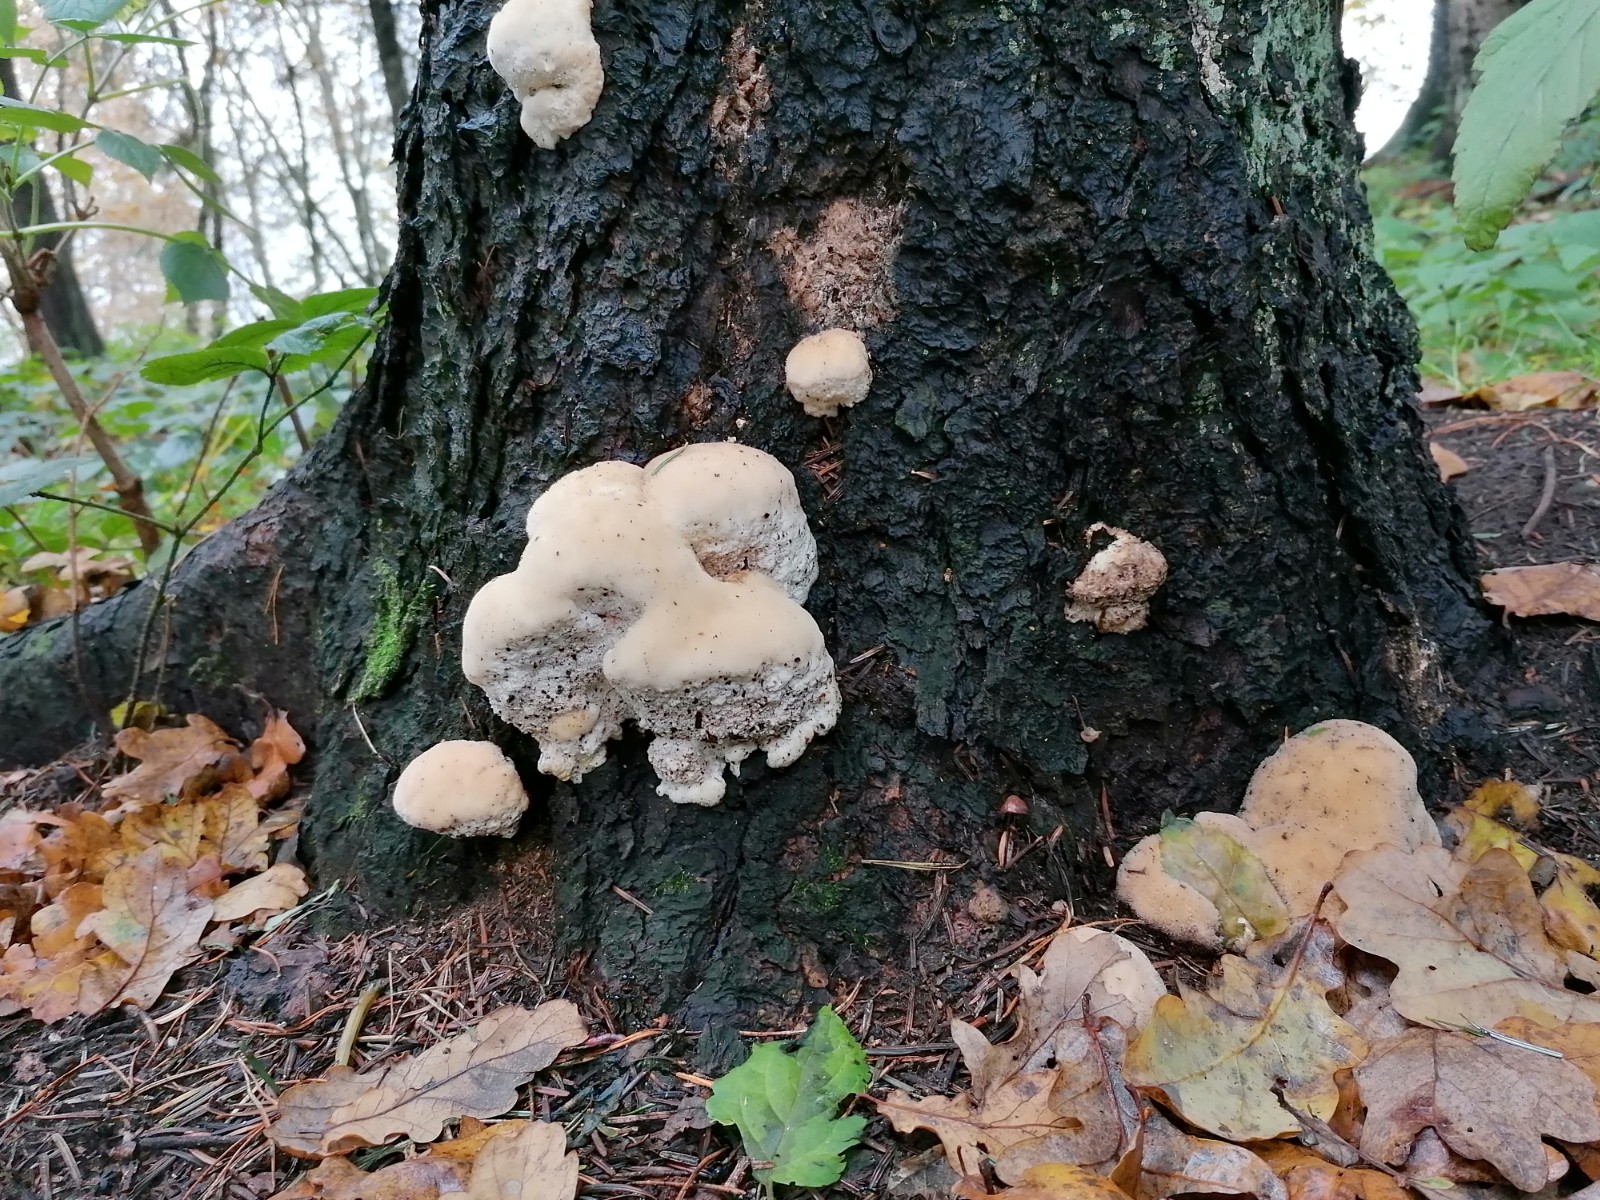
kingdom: Fungi
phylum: Basidiomycota
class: Agaricomycetes
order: Polyporales
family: Dacryobolaceae
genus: Postia
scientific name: Postia ptychogaster
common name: støvende kødporesvamp
